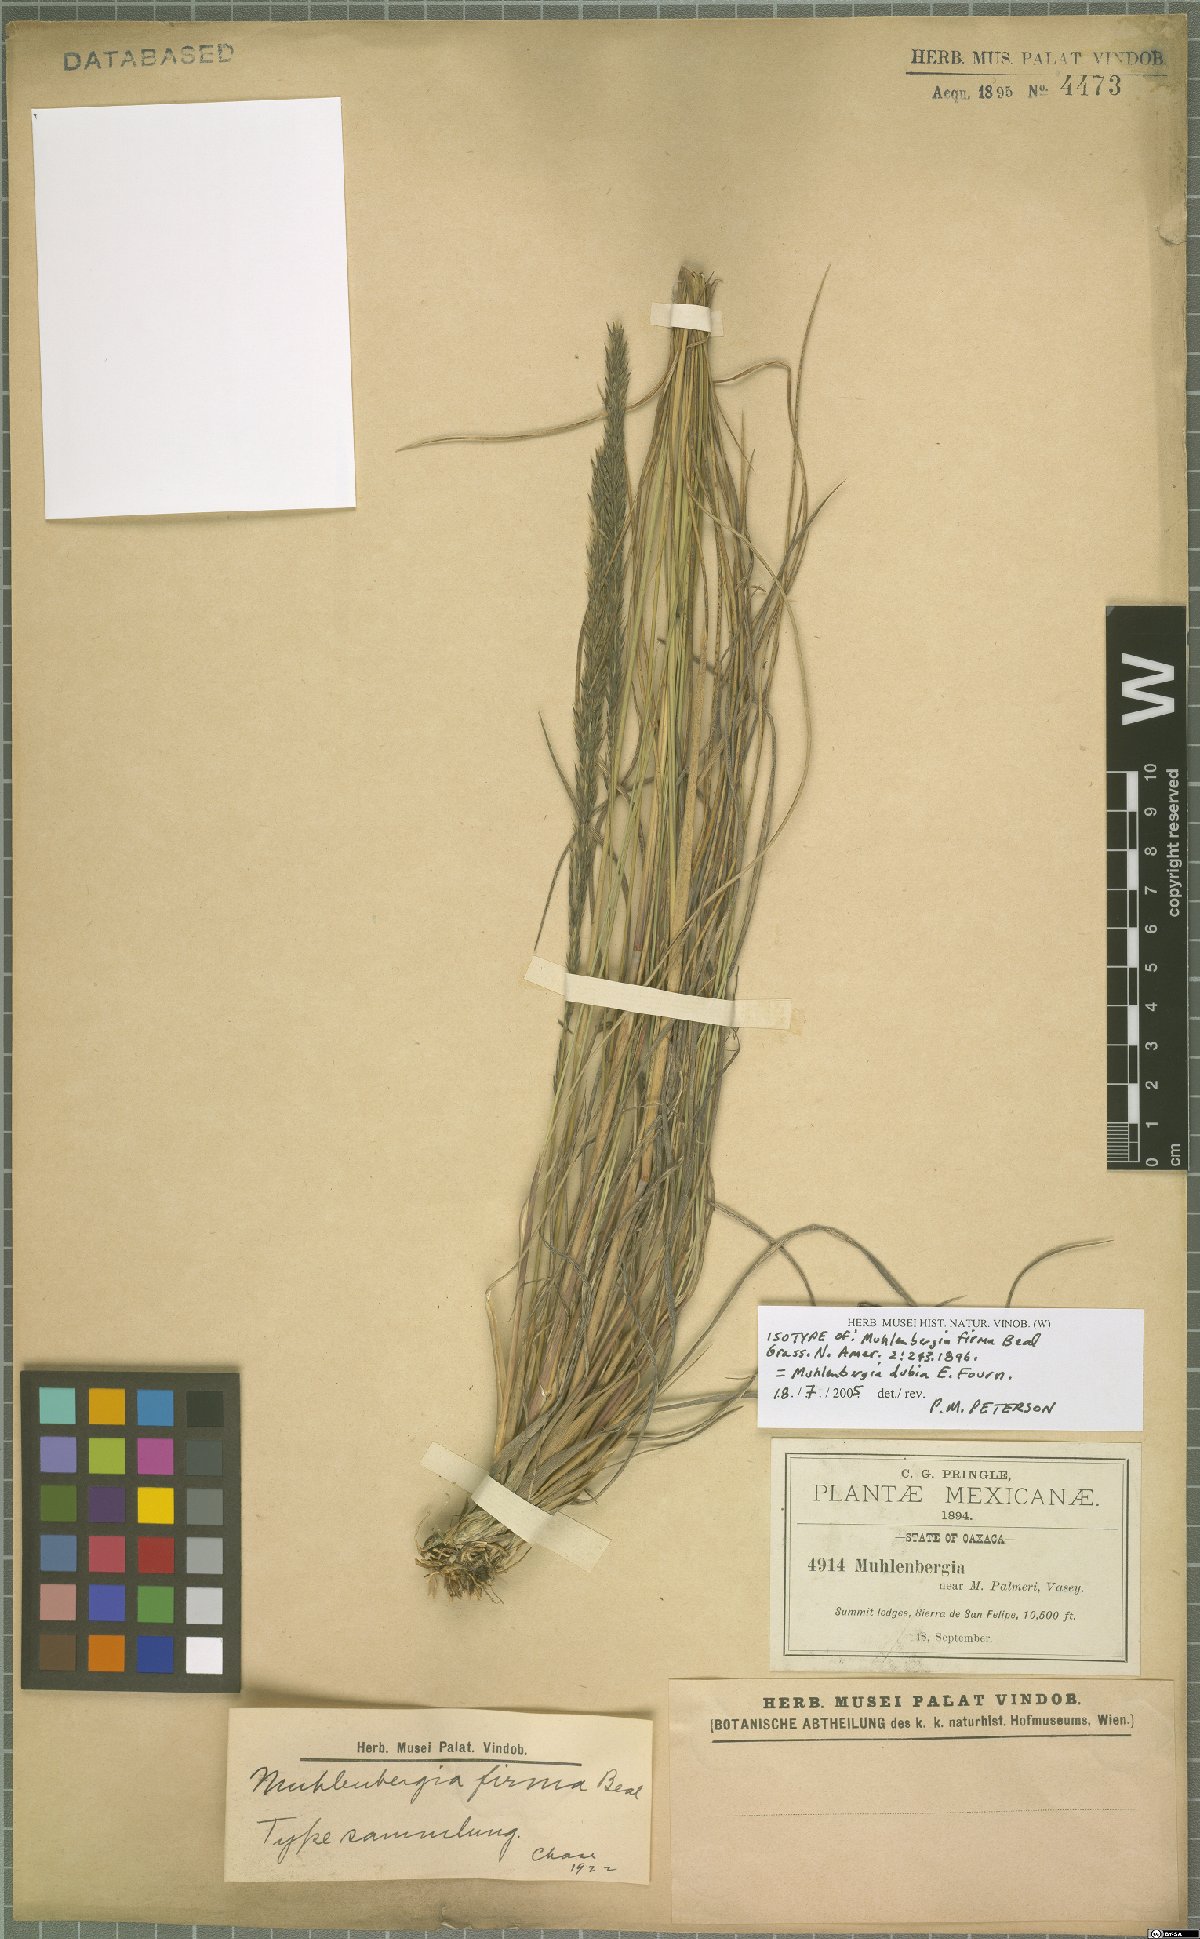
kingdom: Plantae
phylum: Tracheophyta
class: Liliopsida
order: Poales
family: Poaceae
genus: Muhlenbergia
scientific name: Muhlenbergia dubia
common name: Pine muhly
